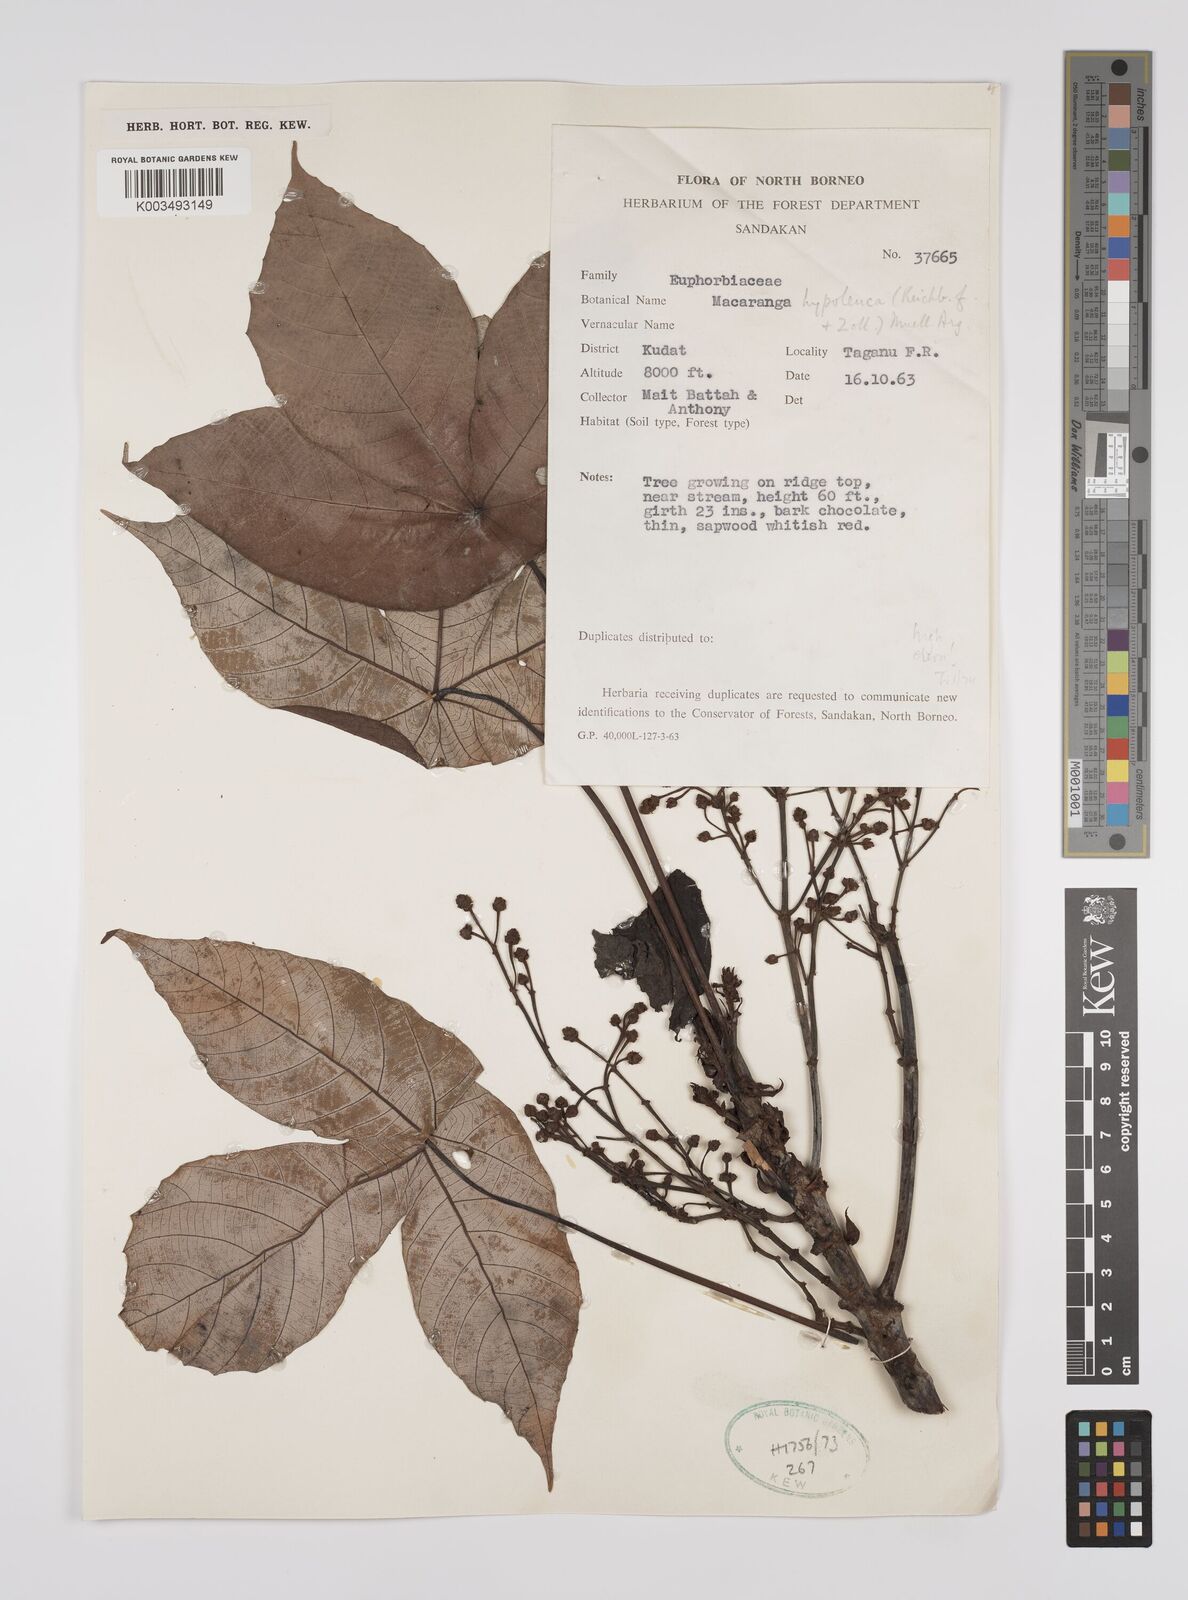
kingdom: Plantae
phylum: Tracheophyta
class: Magnoliopsida
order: Malpighiales
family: Euphorbiaceae
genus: Macaranga
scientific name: Macaranga hypoleuca
